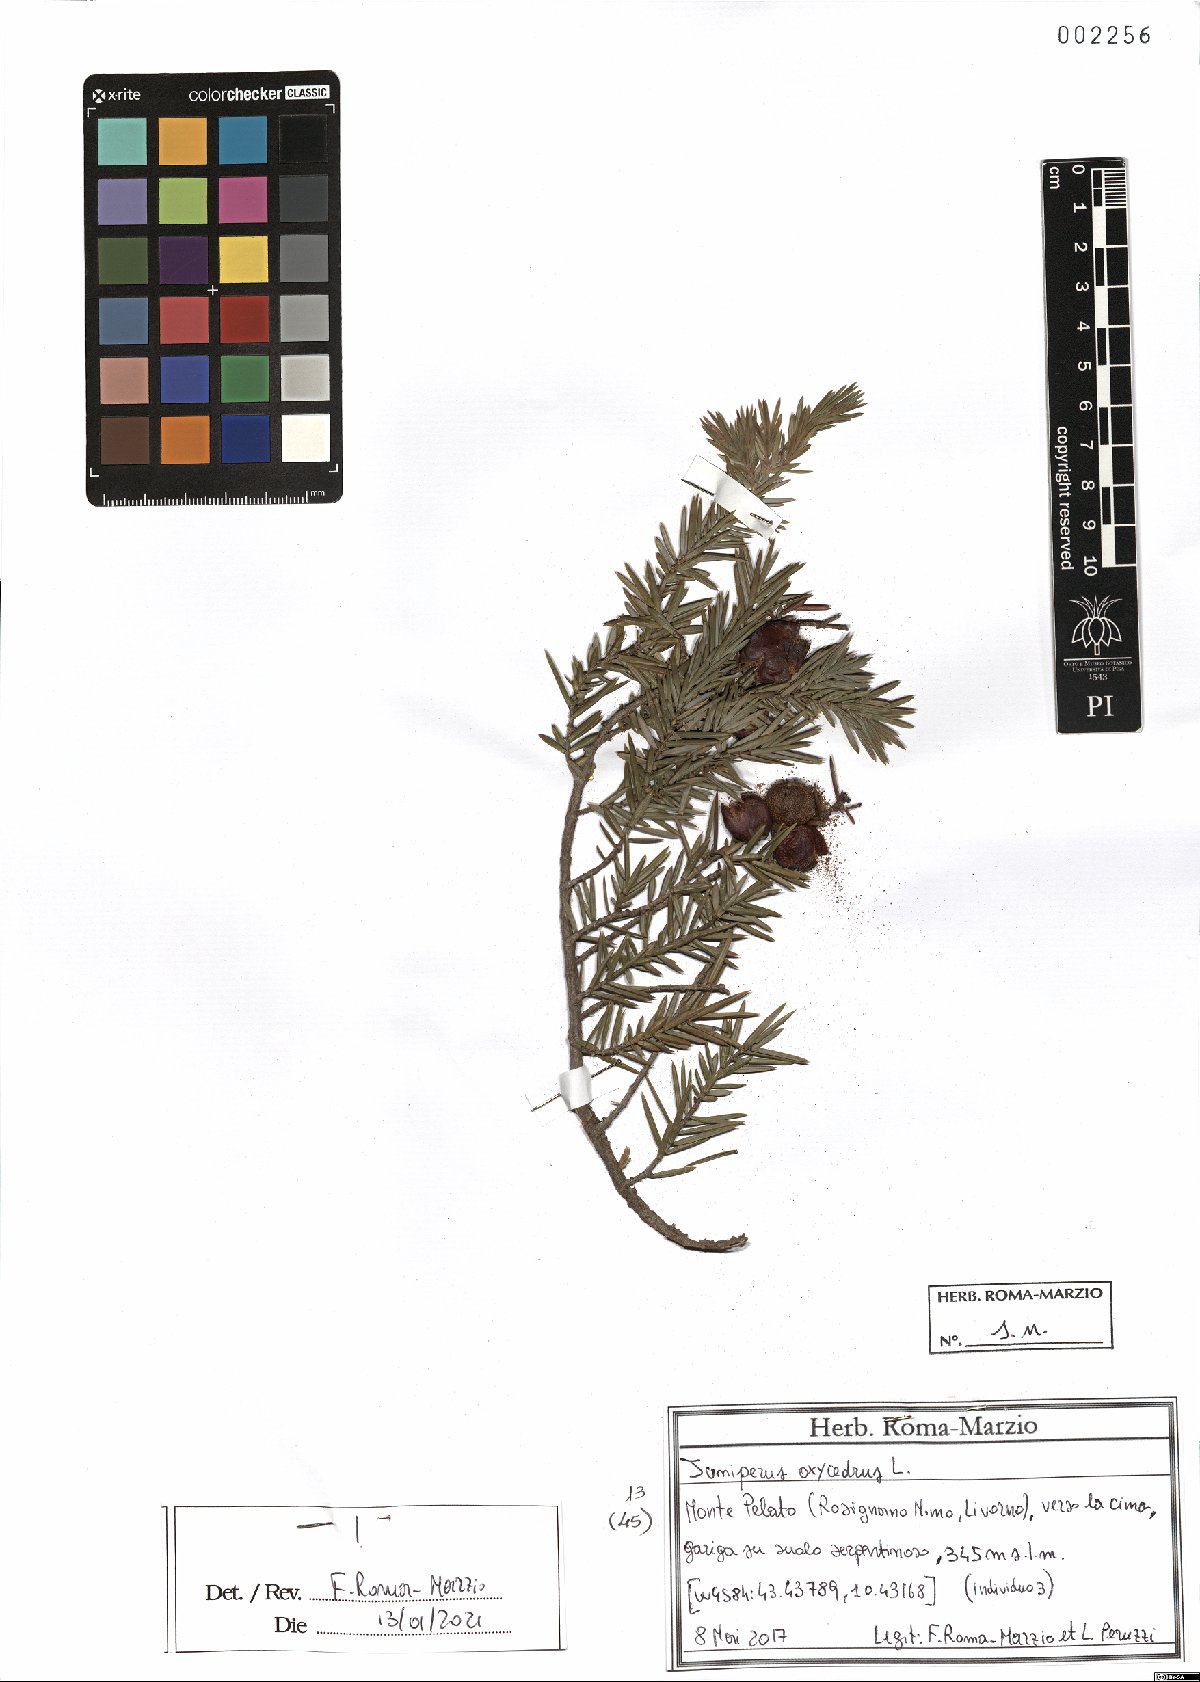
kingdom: Plantae
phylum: Tracheophyta
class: Pinopsida
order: Pinales
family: Cupressaceae
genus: Juniperus
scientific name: Juniperus oxycedrus
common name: Prickly juniper
